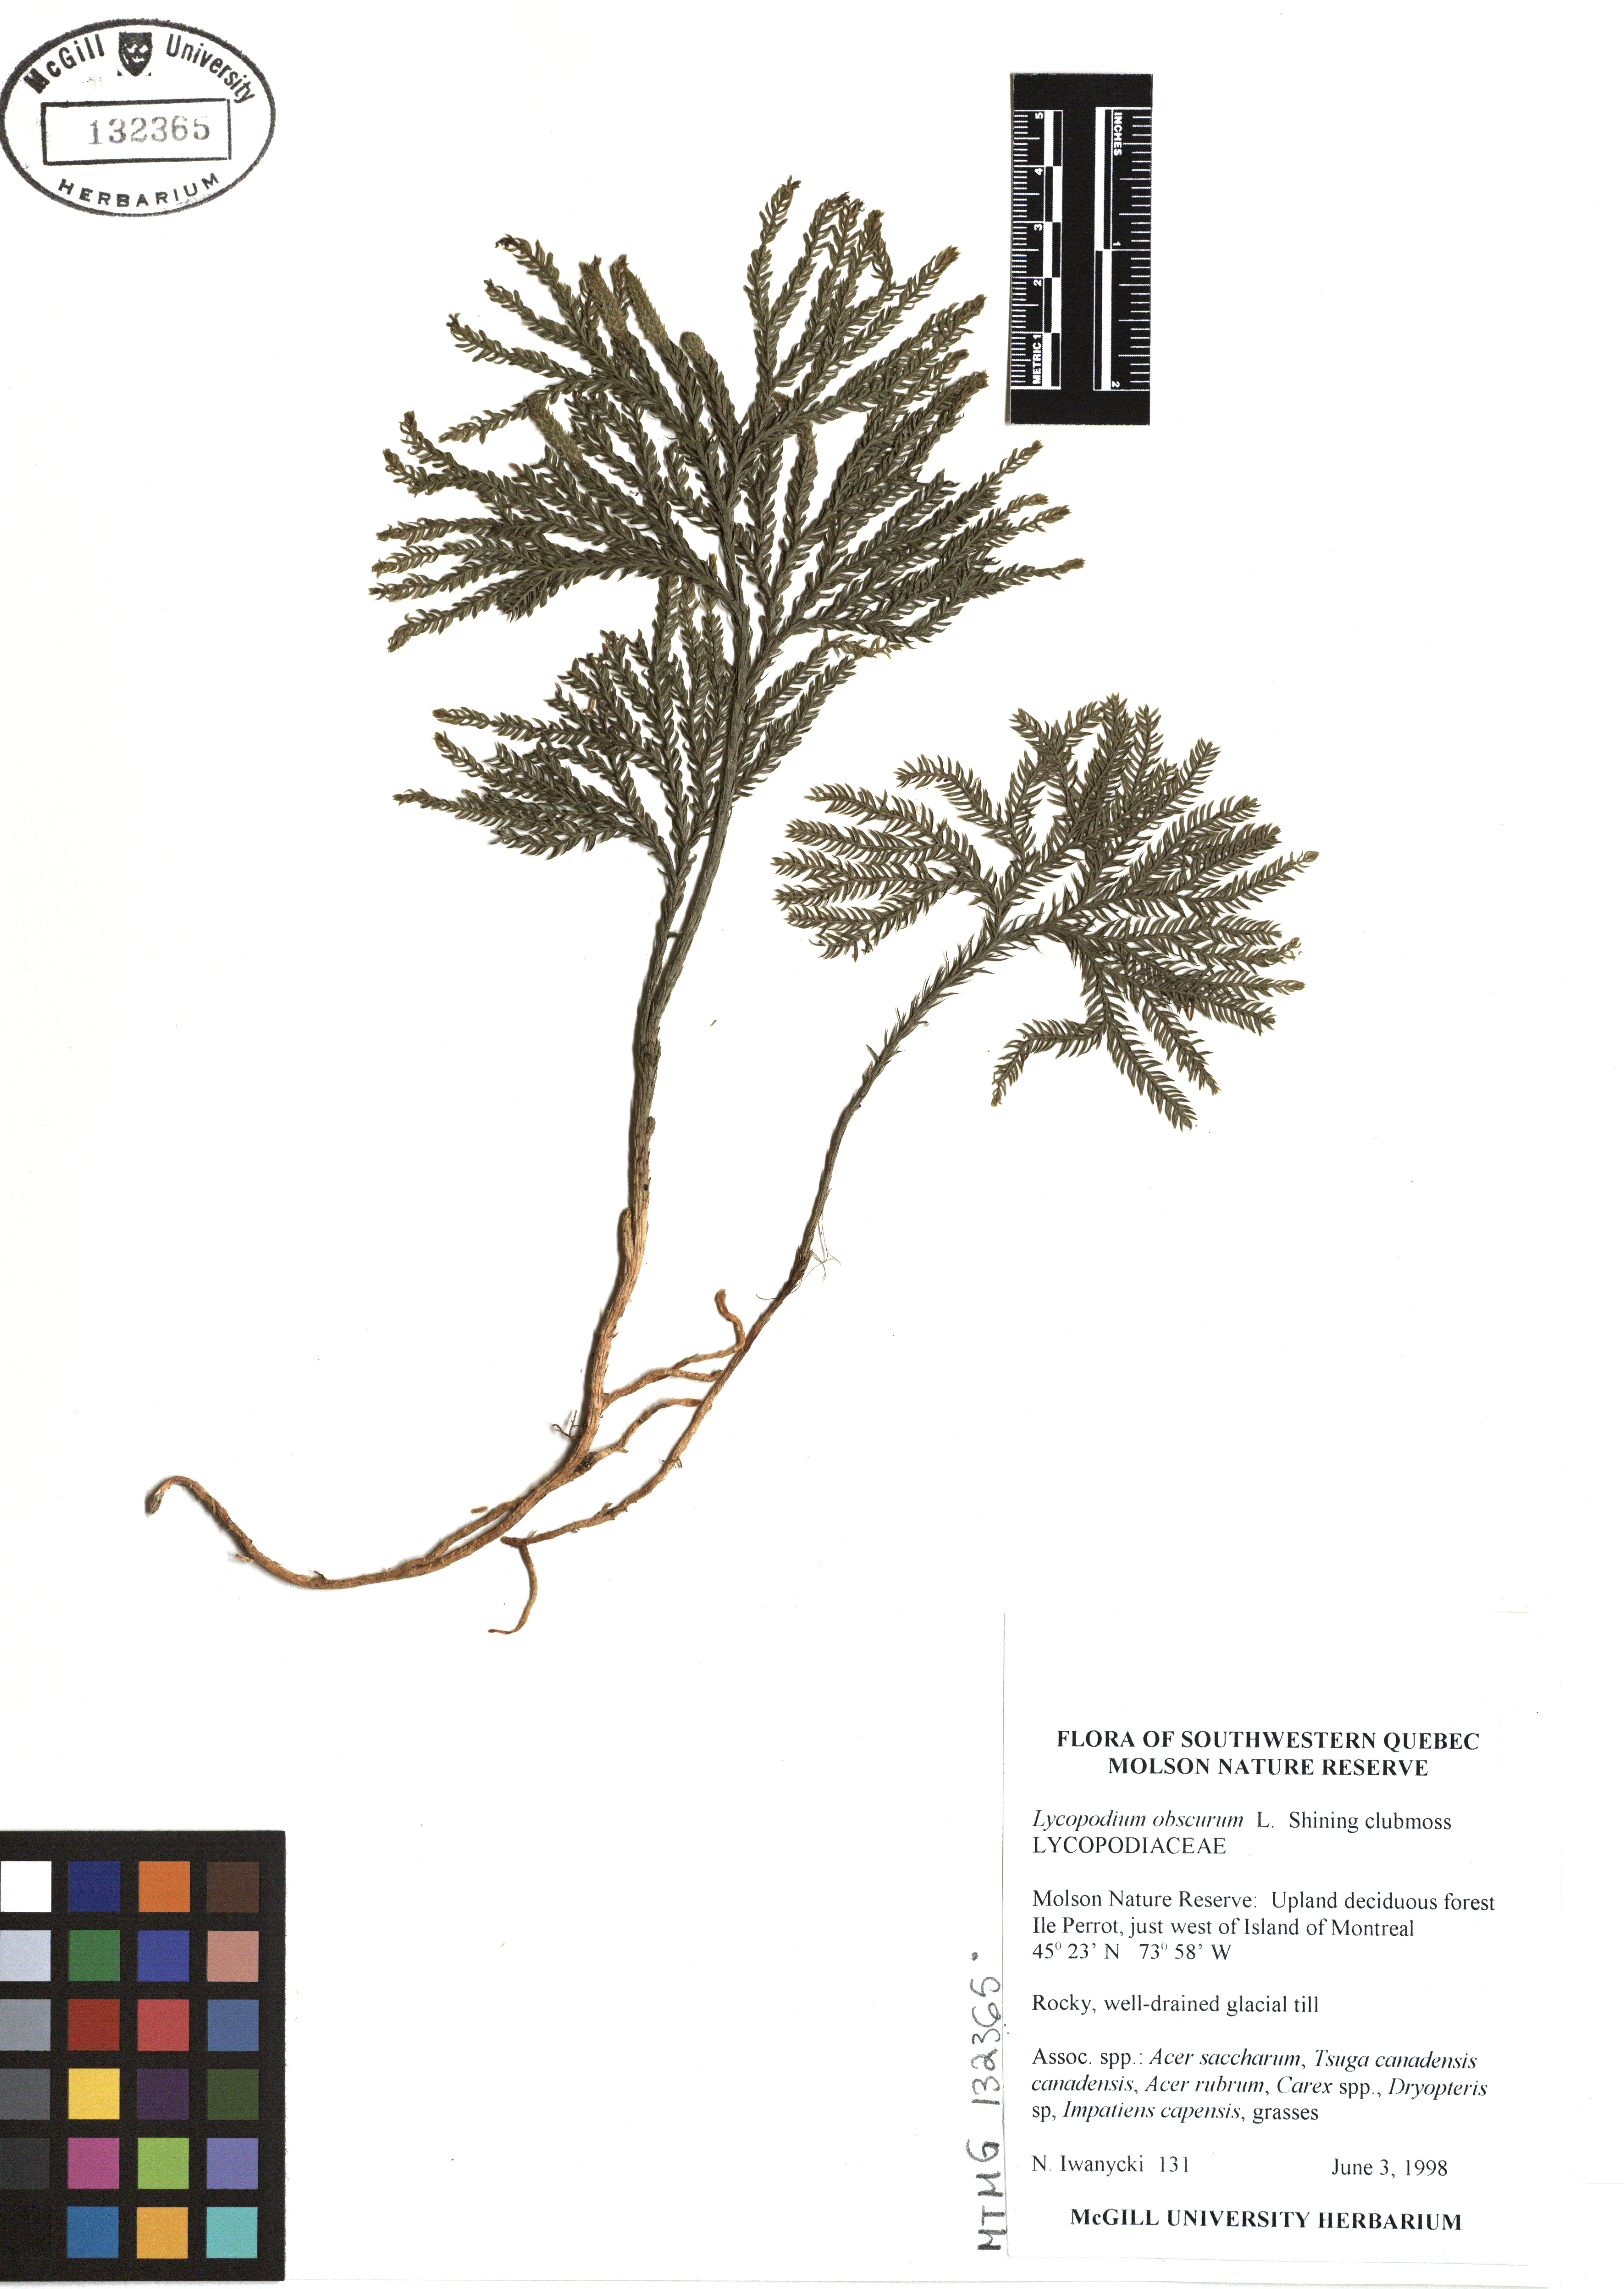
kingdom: Plantae
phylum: Tracheophyta
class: Lycopodiopsida
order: Lycopodiales
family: Lycopodiaceae
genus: Dendrolycopodium
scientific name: Dendrolycopodium obscurum
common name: Common ground-pine
